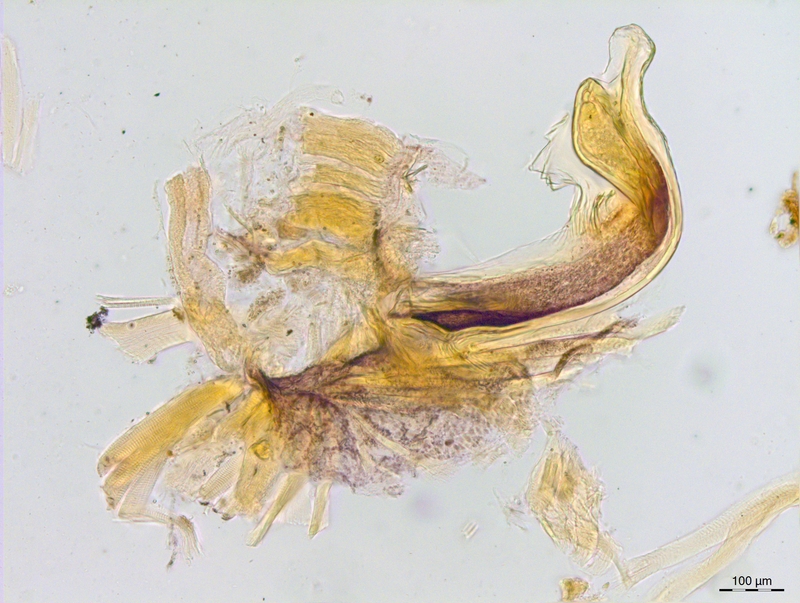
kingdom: Animalia
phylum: Arthropoda
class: Diplopoda
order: Chordeumatida
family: Craspedosomatidae
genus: Craspedosoma
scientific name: Craspedosoma rawlinsii
